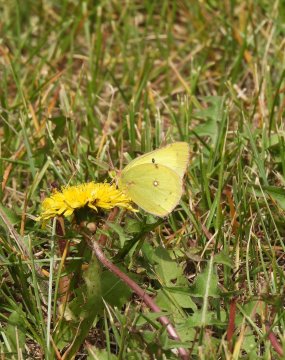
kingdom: Animalia
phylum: Arthropoda
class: Insecta
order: Lepidoptera
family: Pieridae
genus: Colias
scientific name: Colias interior
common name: Pink-edged Sulphur
